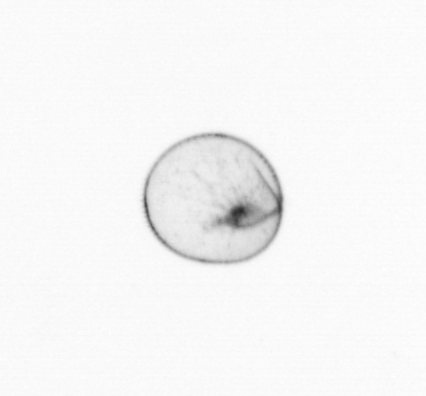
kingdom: Chromista
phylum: Myzozoa
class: Dinophyceae
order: Noctilucales
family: Noctilucaceae
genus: Noctiluca
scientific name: Noctiluca scintillans
